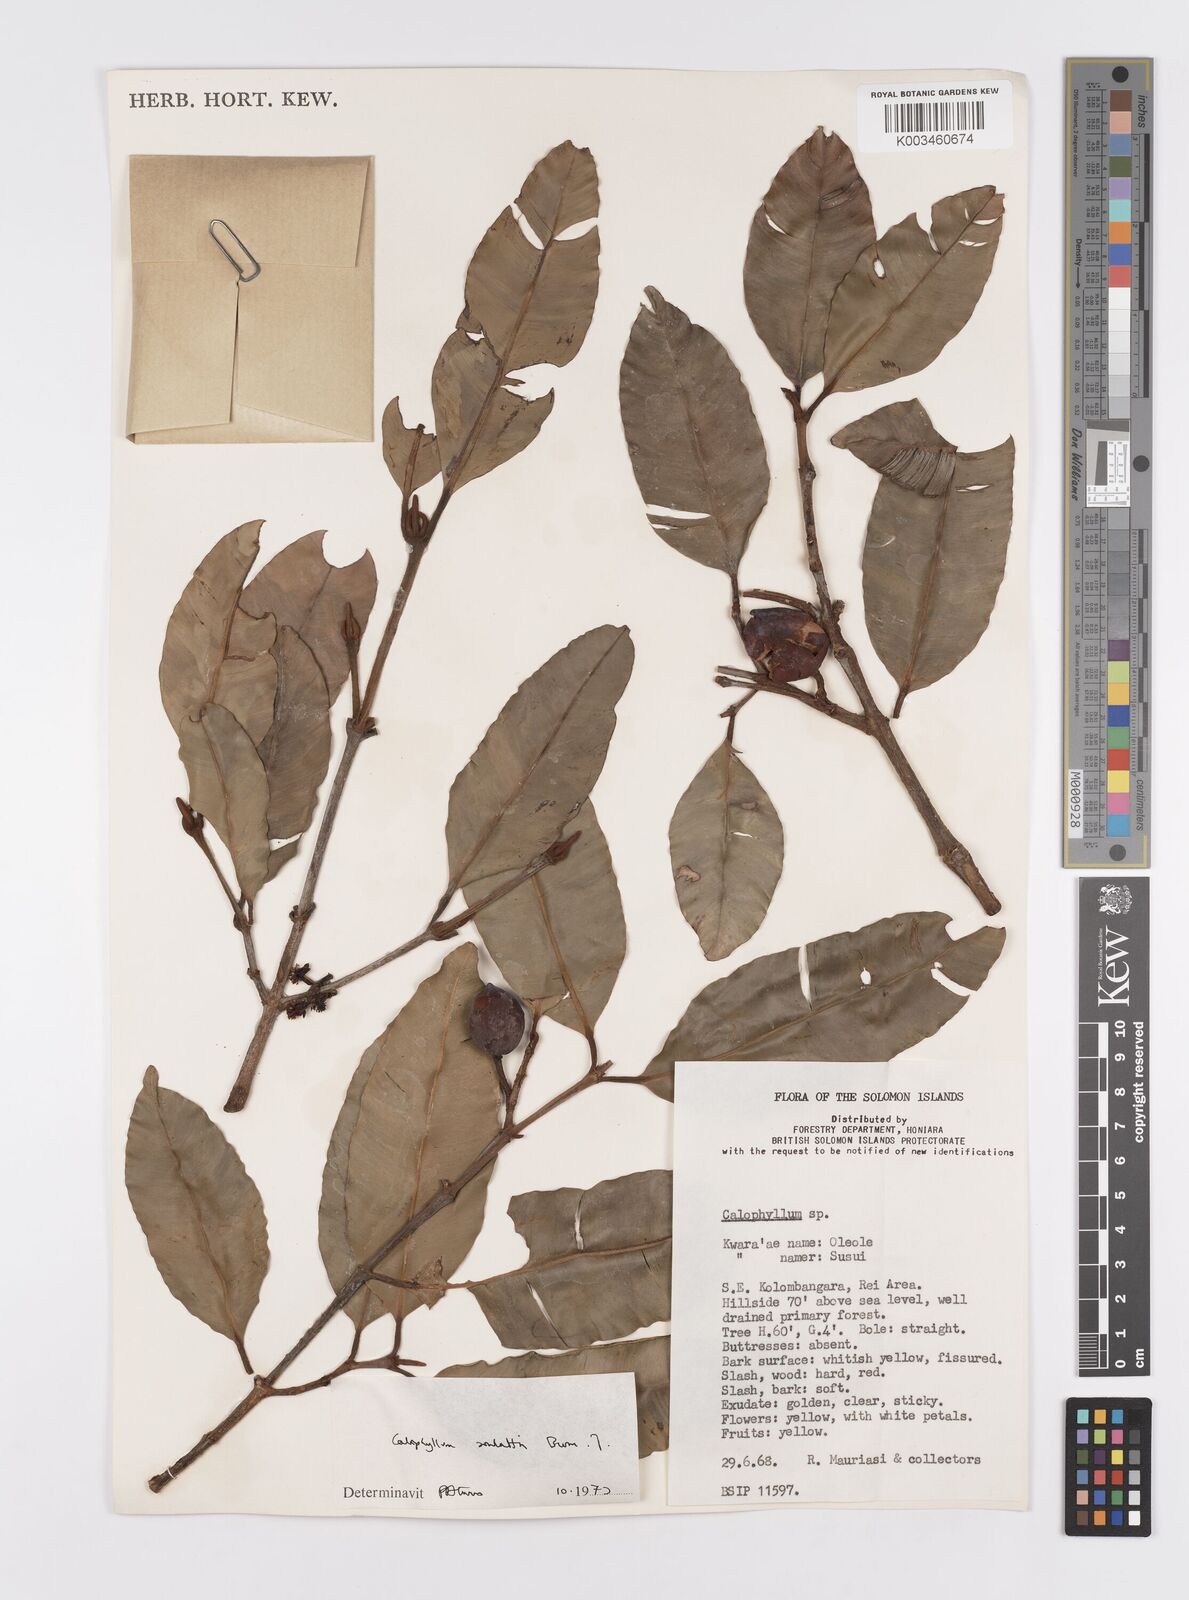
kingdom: Plantae
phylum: Tracheophyta
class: Magnoliopsida
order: Malpighiales
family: Calophyllaceae
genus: Calophyllum
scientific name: Calophyllum soulattri
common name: Bitangoor boonot
